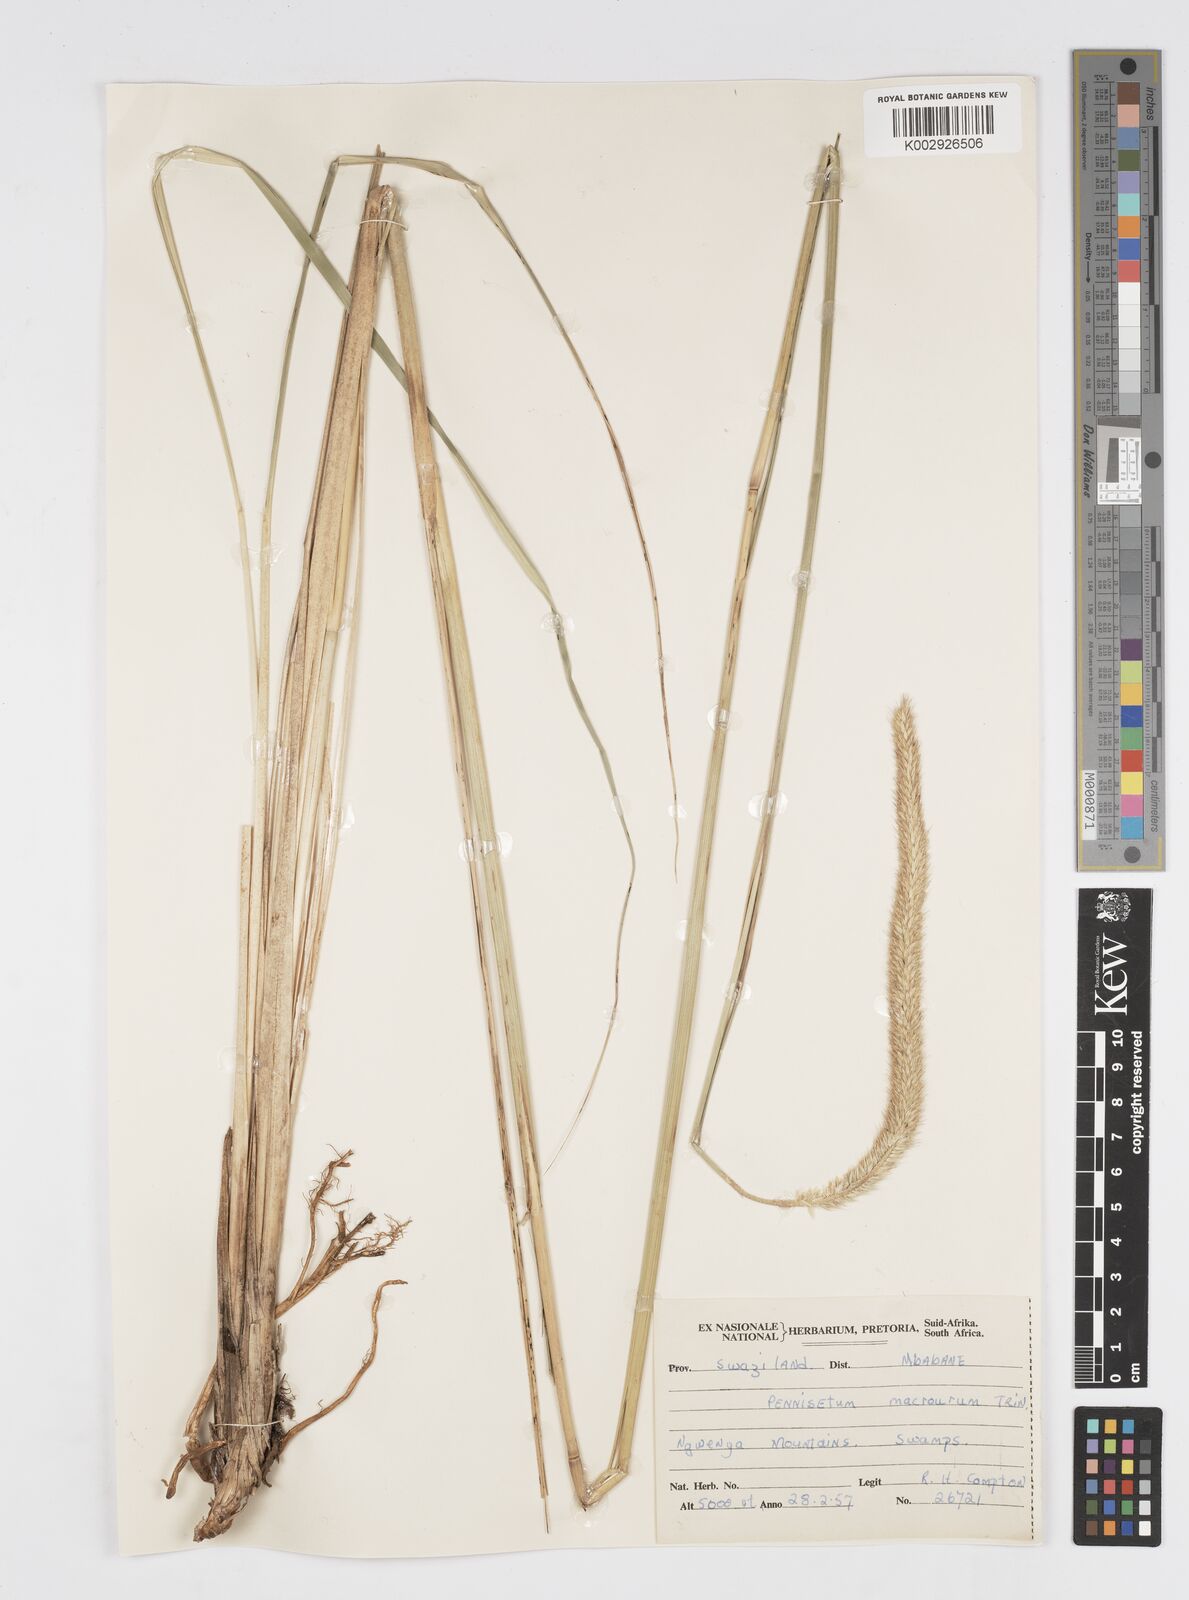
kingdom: Plantae
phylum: Tracheophyta
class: Liliopsida
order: Poales
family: Poaceae
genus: Cenchrus
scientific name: Cenchrus caudatus
